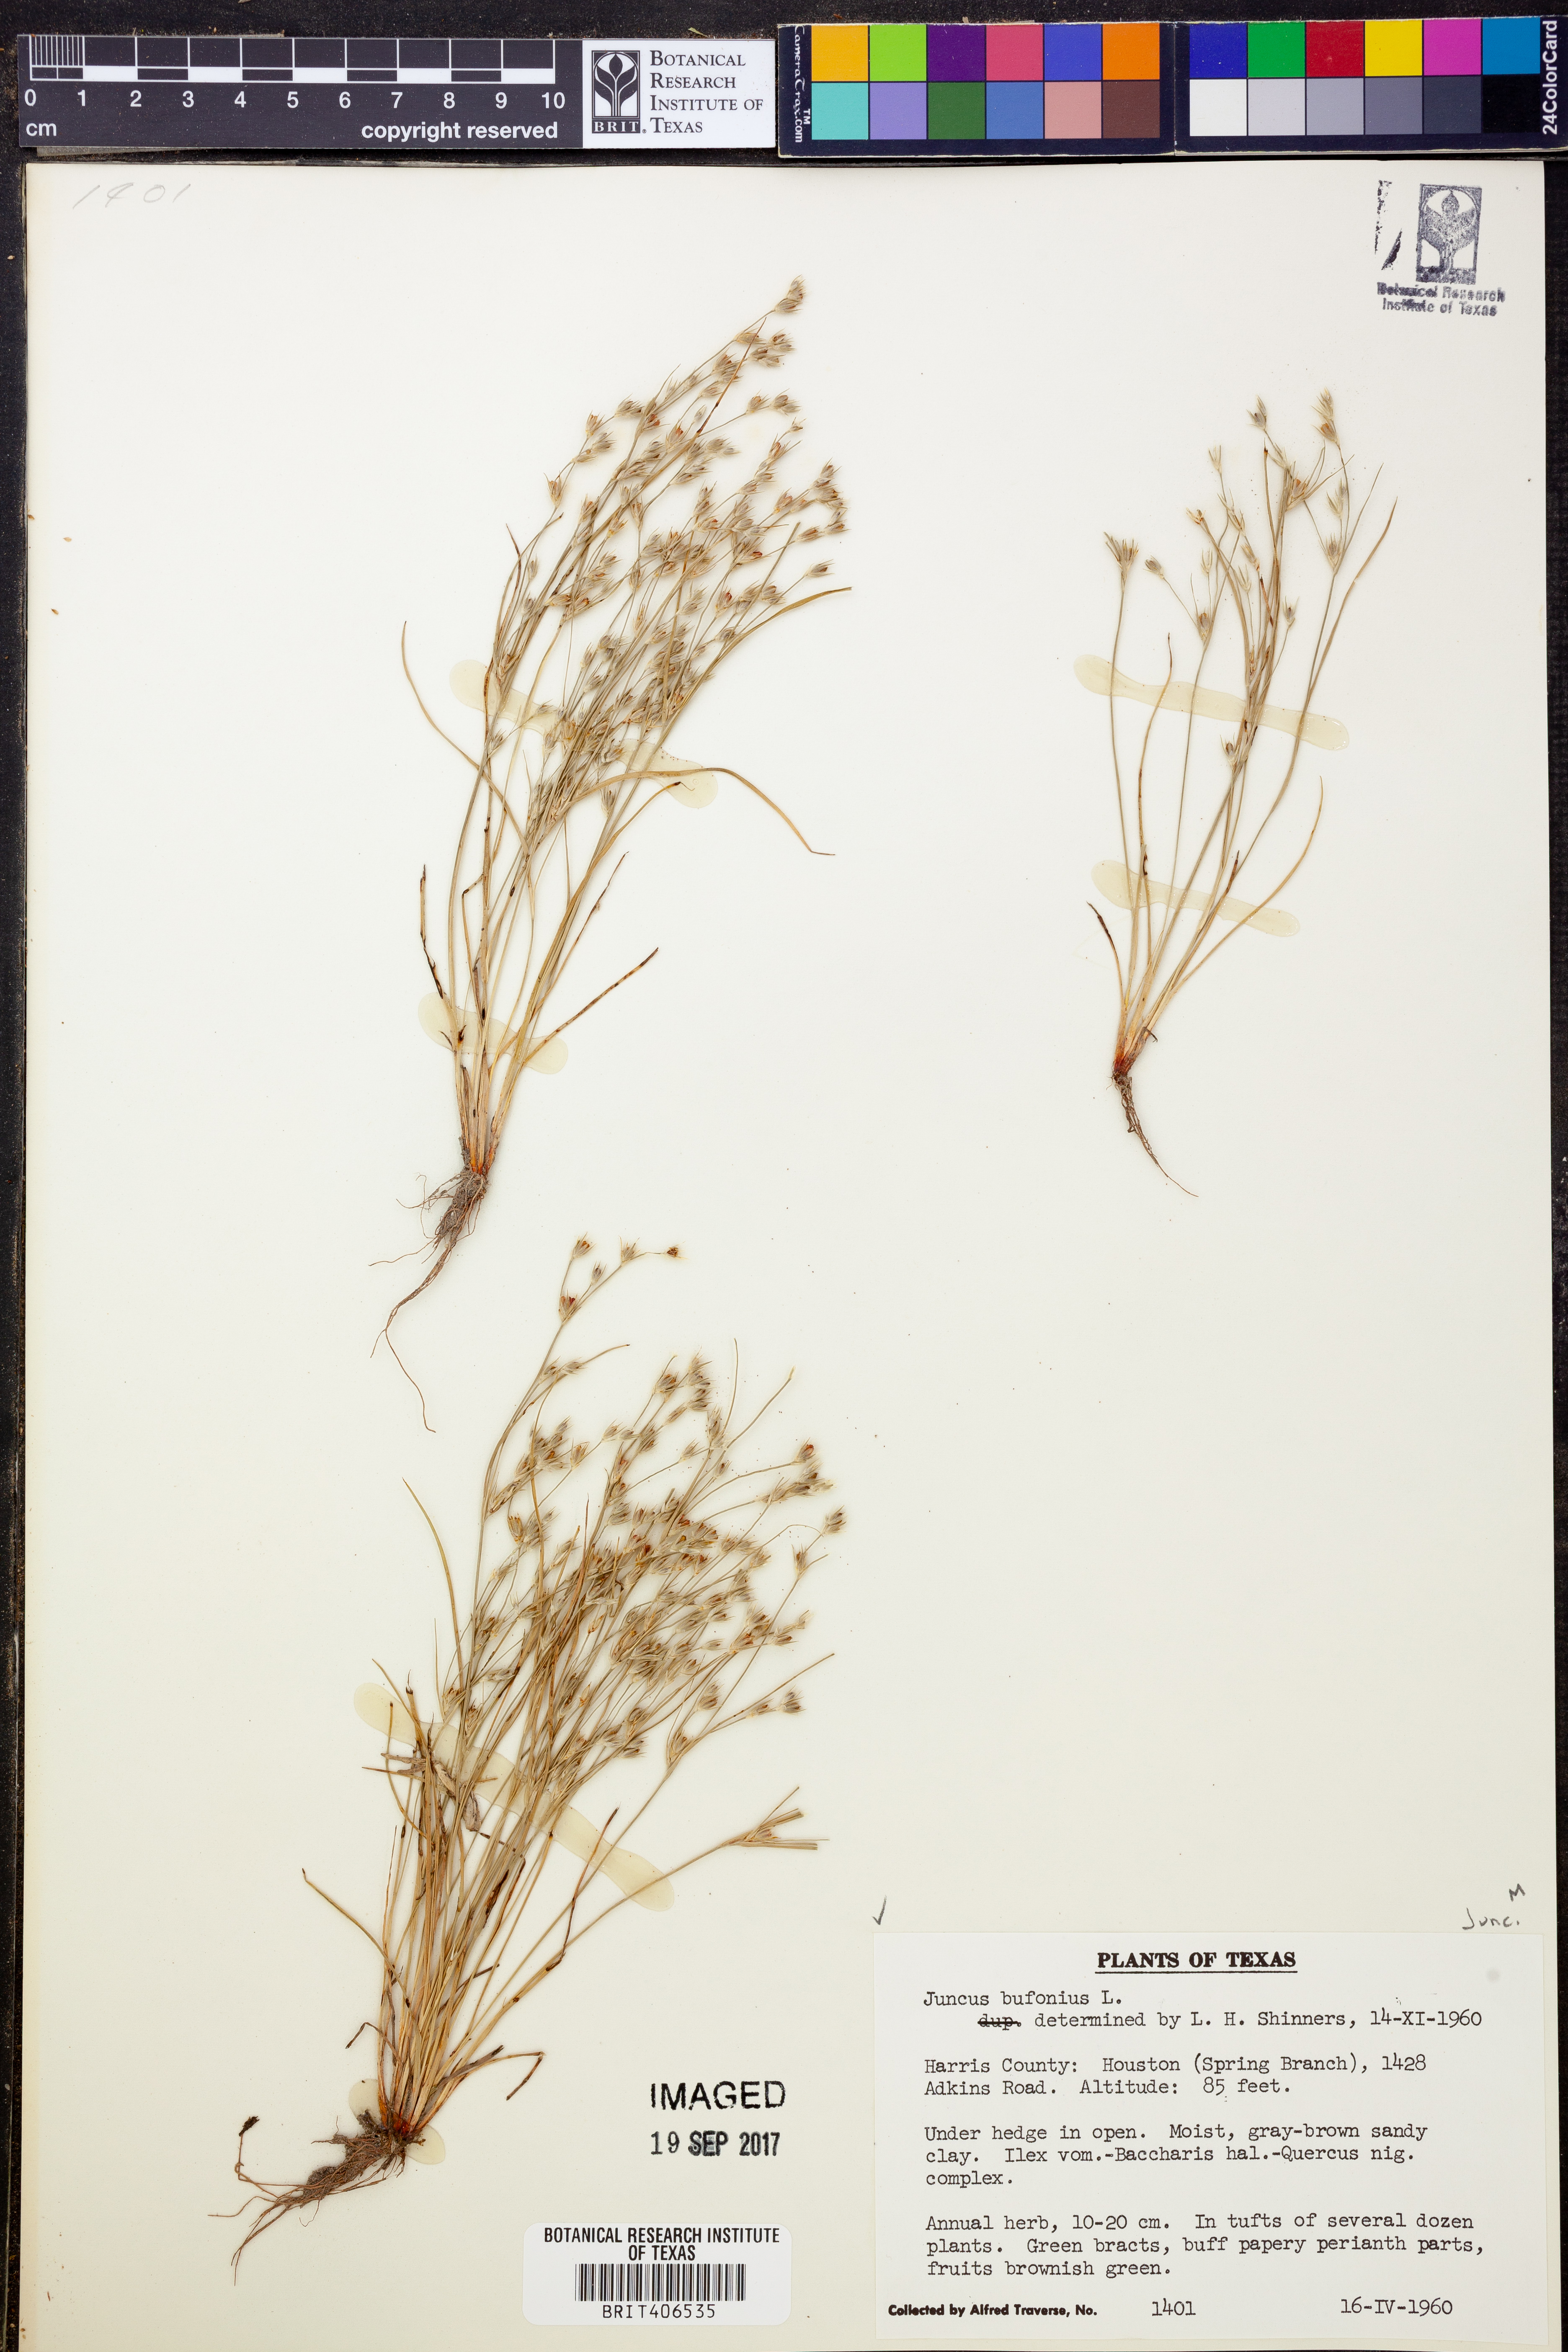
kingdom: Plantae
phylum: Tracheophyta
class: Liliopsida
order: Poales
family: Juncaceae
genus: Juncus
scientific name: Juncus bufonius
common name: Toad rush
